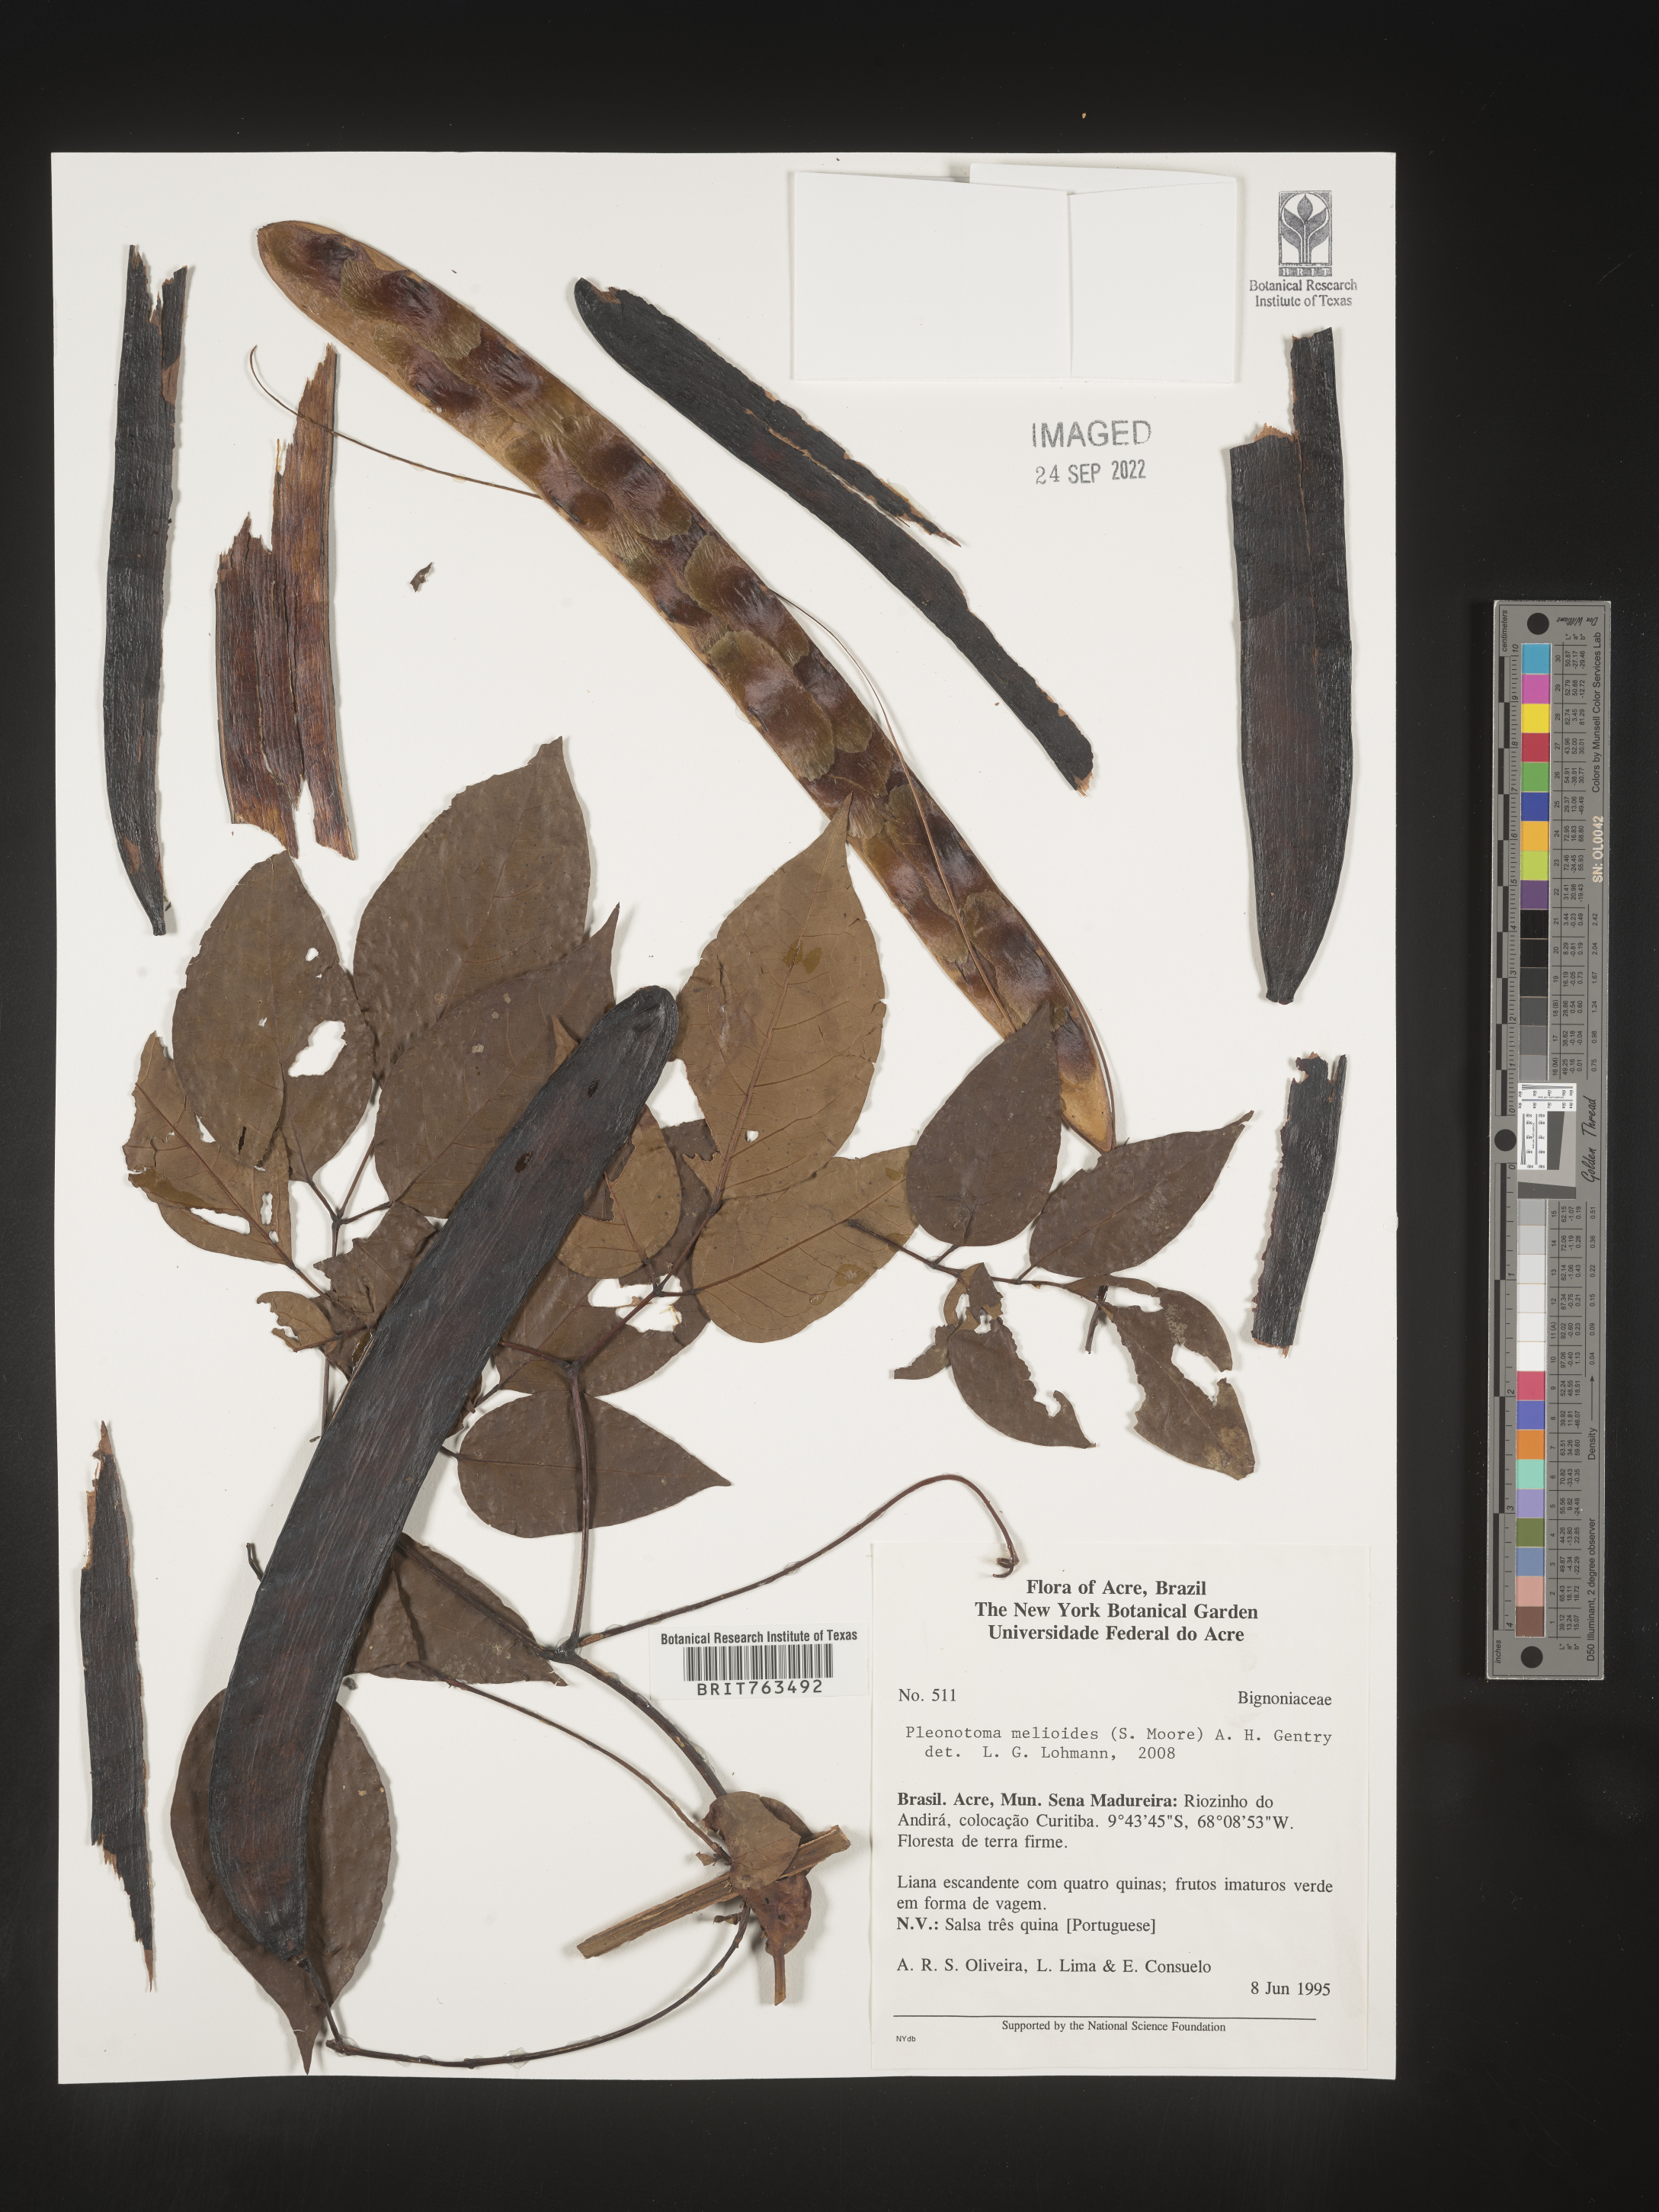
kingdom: Plantae
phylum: Tracheophyta
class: Magnoliopsida
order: Lamiales
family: Bignoniaceae
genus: Pleonotoma
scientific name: Pleonotoma
